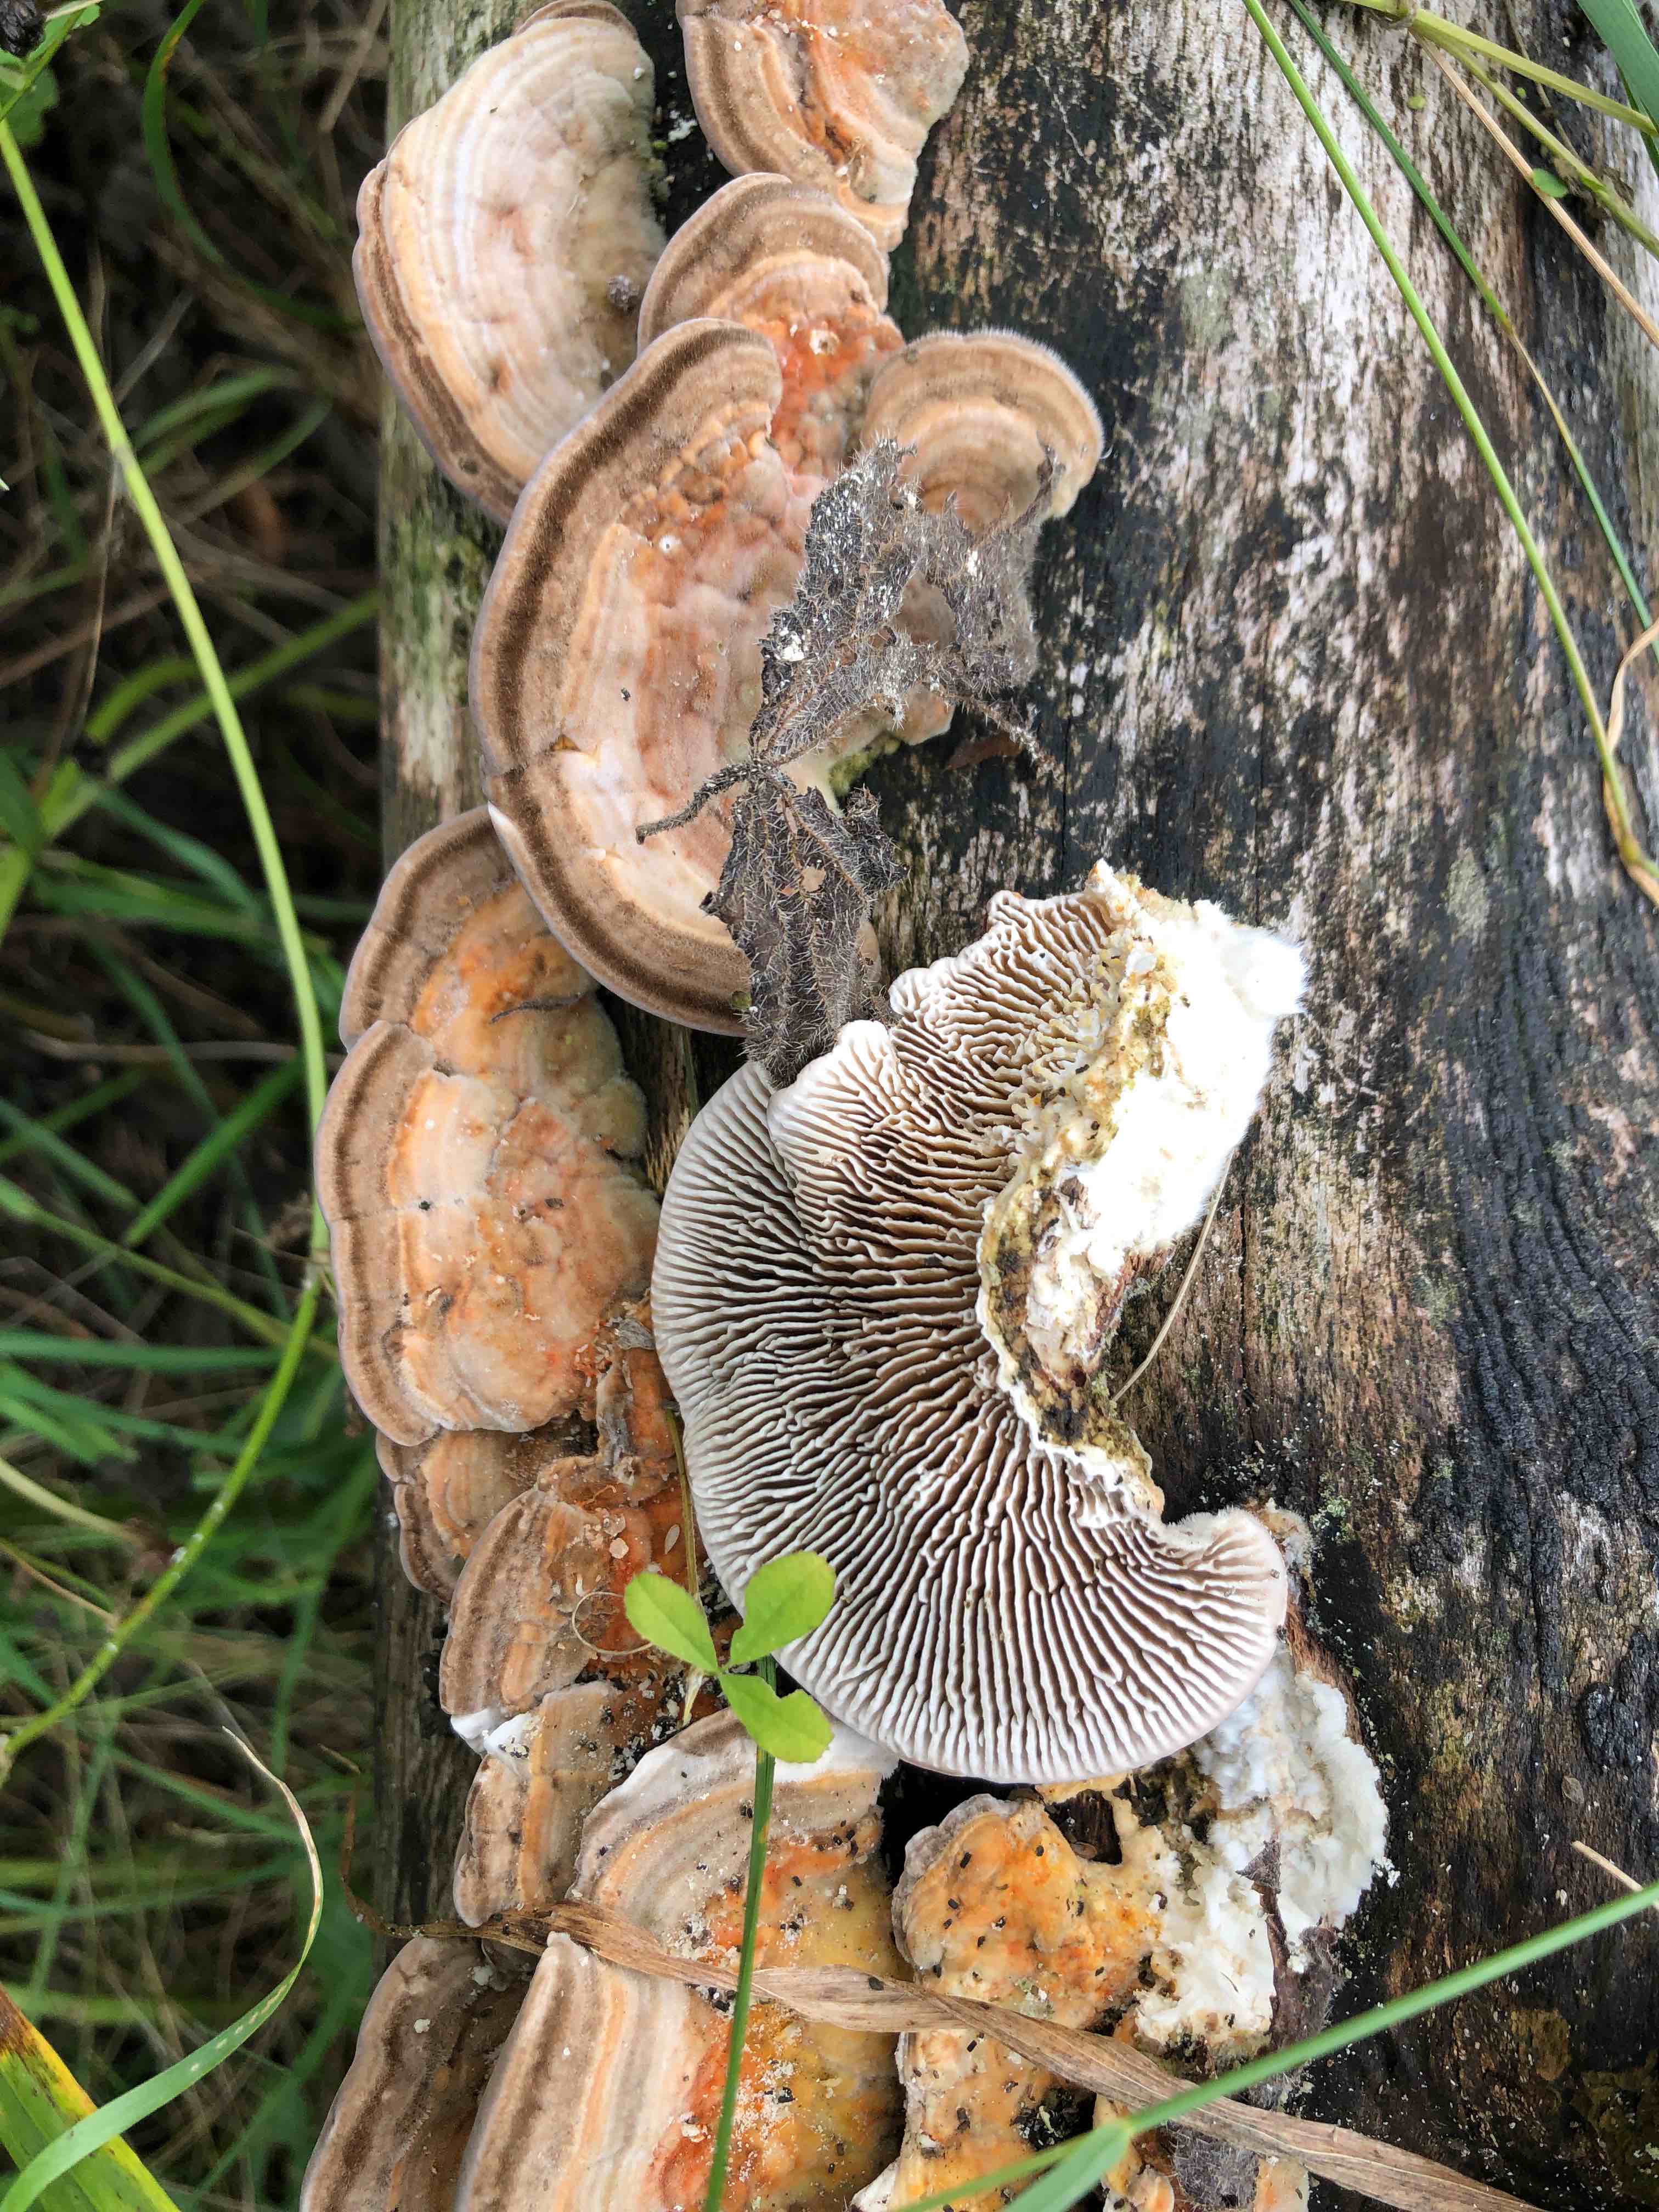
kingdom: Fungi
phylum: Basidiomycota
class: Agaricomycetes
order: Polyporales
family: Polyporaceae
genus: Lenzites
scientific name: Lenzites betulinus
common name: birke-læderporesvamp
